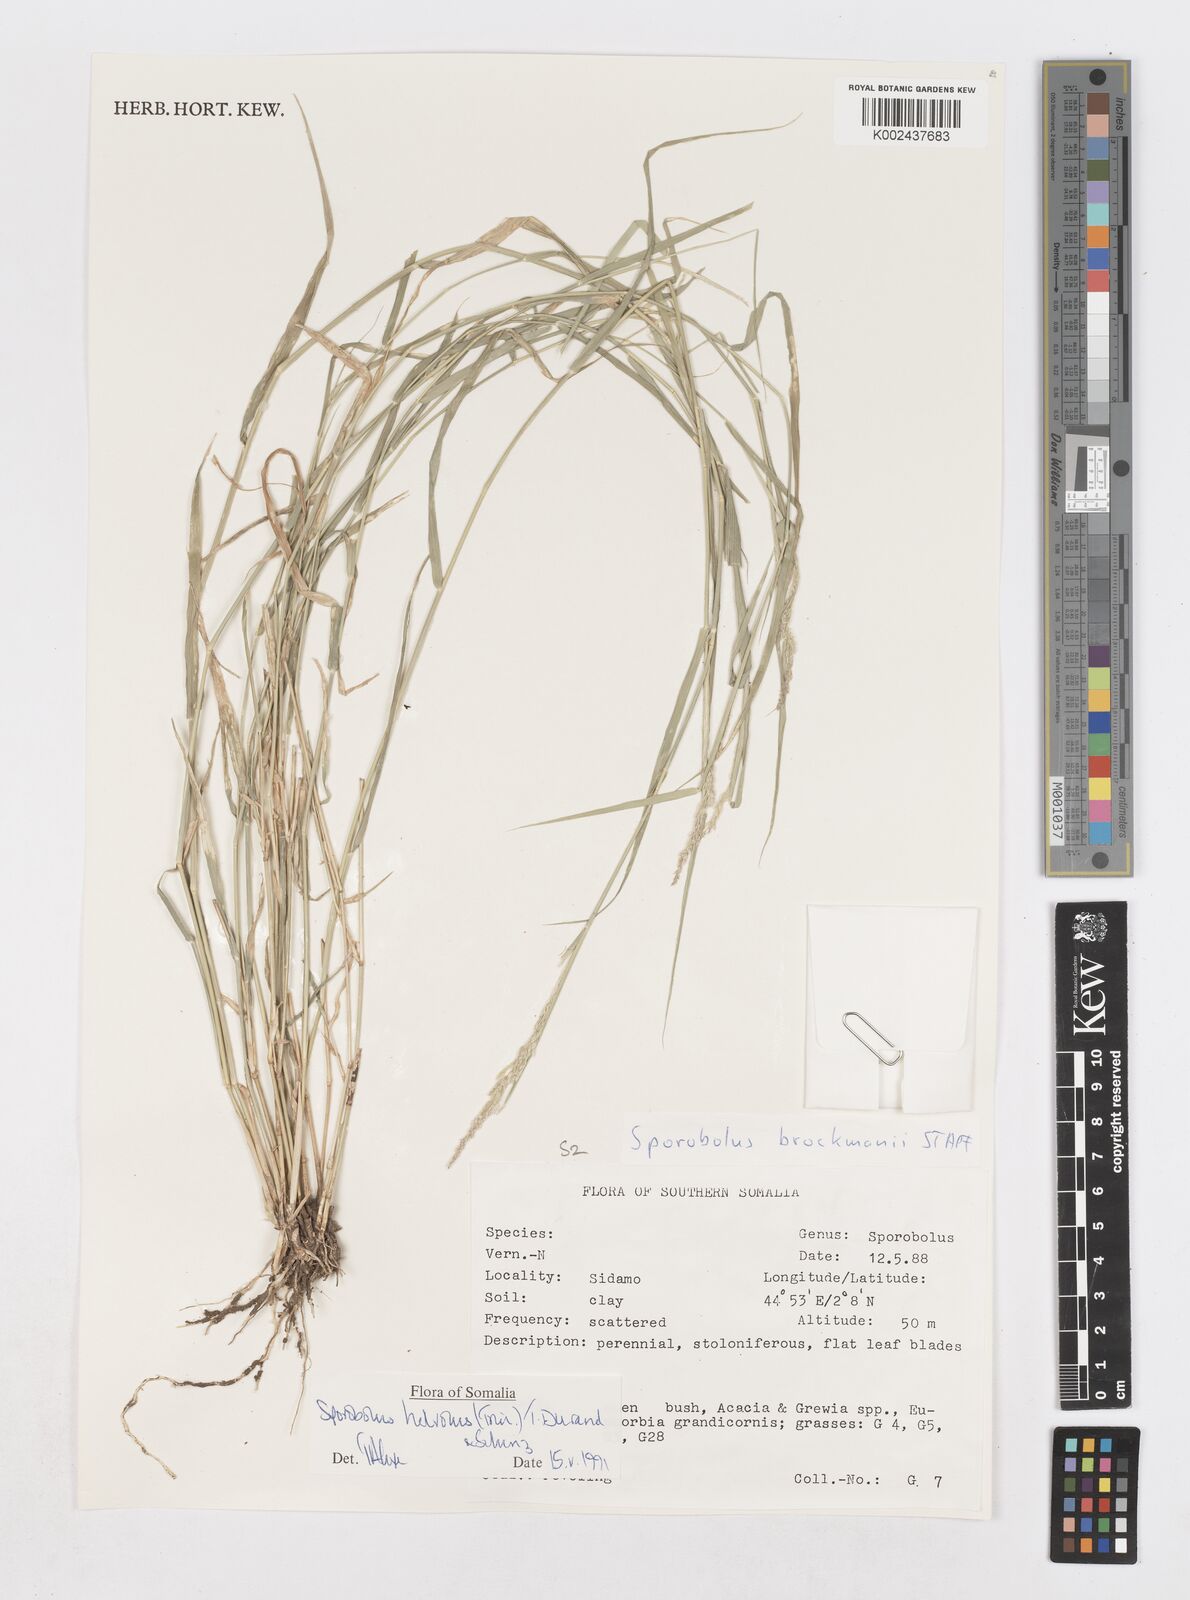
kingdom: Plantae
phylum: Tracheophyta
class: Liliopsida
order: Poales
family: Poaceae
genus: Sporobolus
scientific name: Sporobolus helvolus
